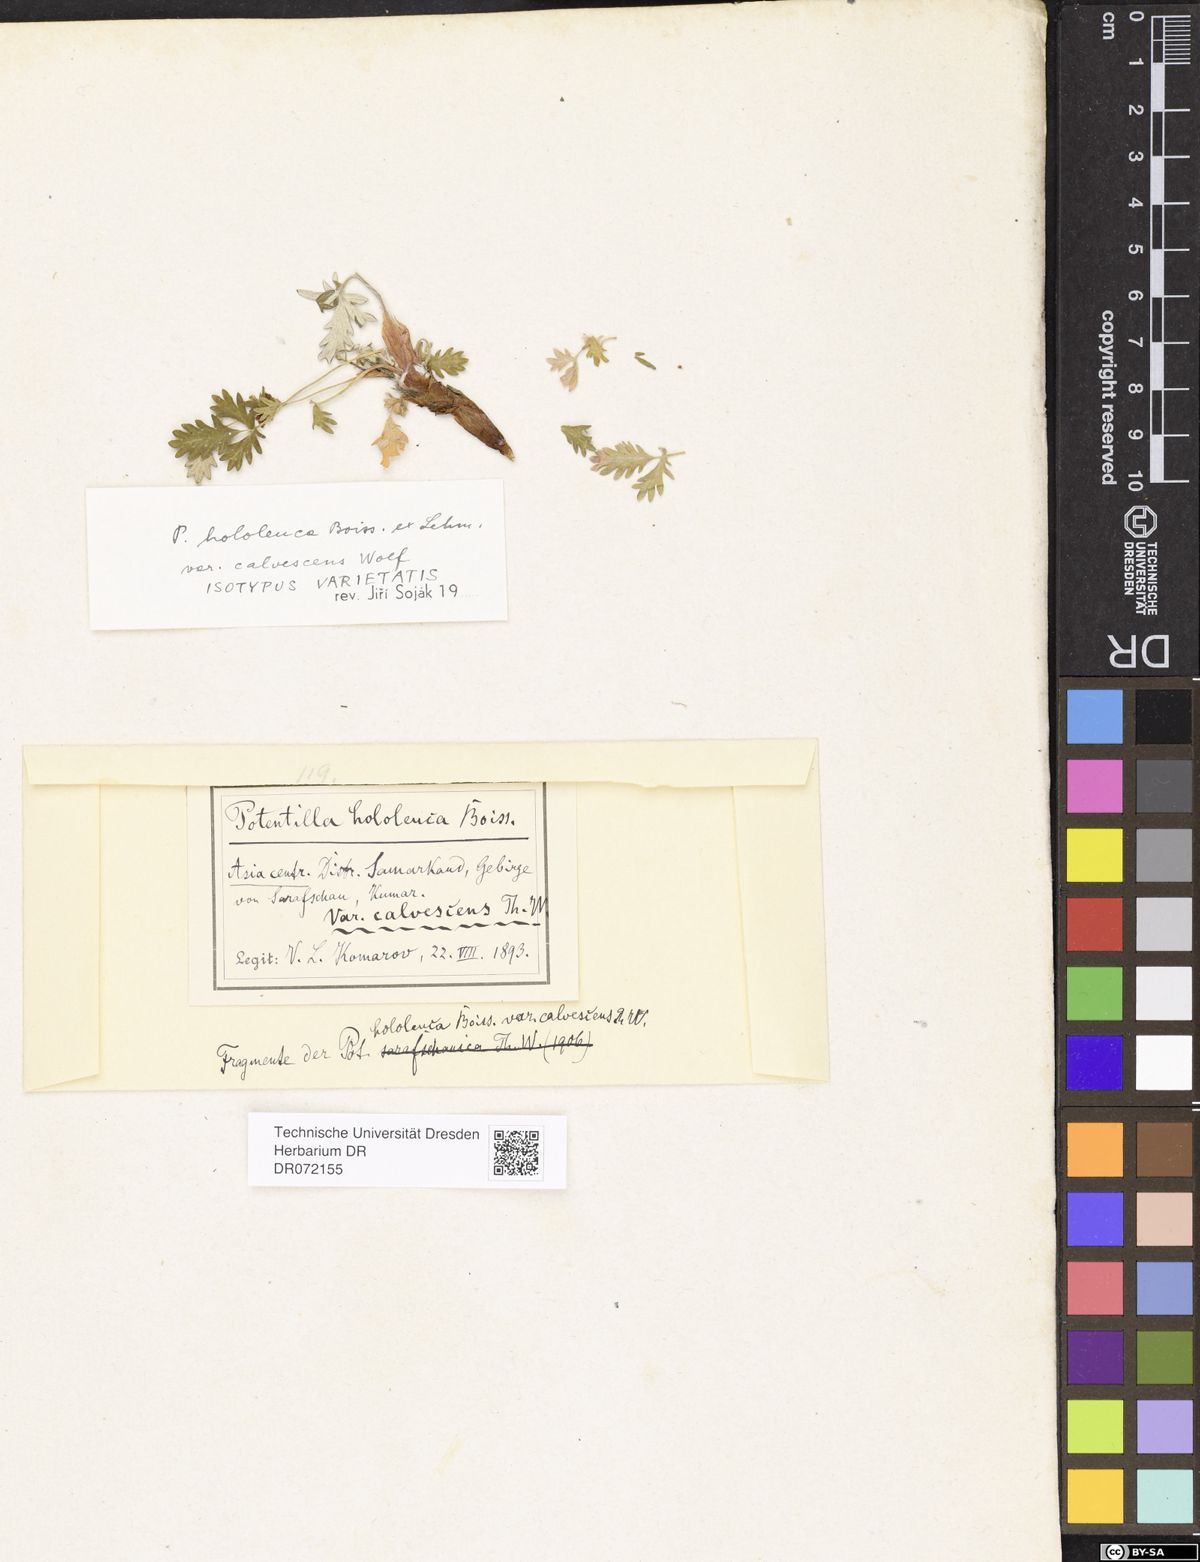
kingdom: Plantae
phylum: Tracheophyta
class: Magnoliopsida
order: Rosales
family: Rosaceae
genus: Potentilla
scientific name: Potentilla hololeuca
